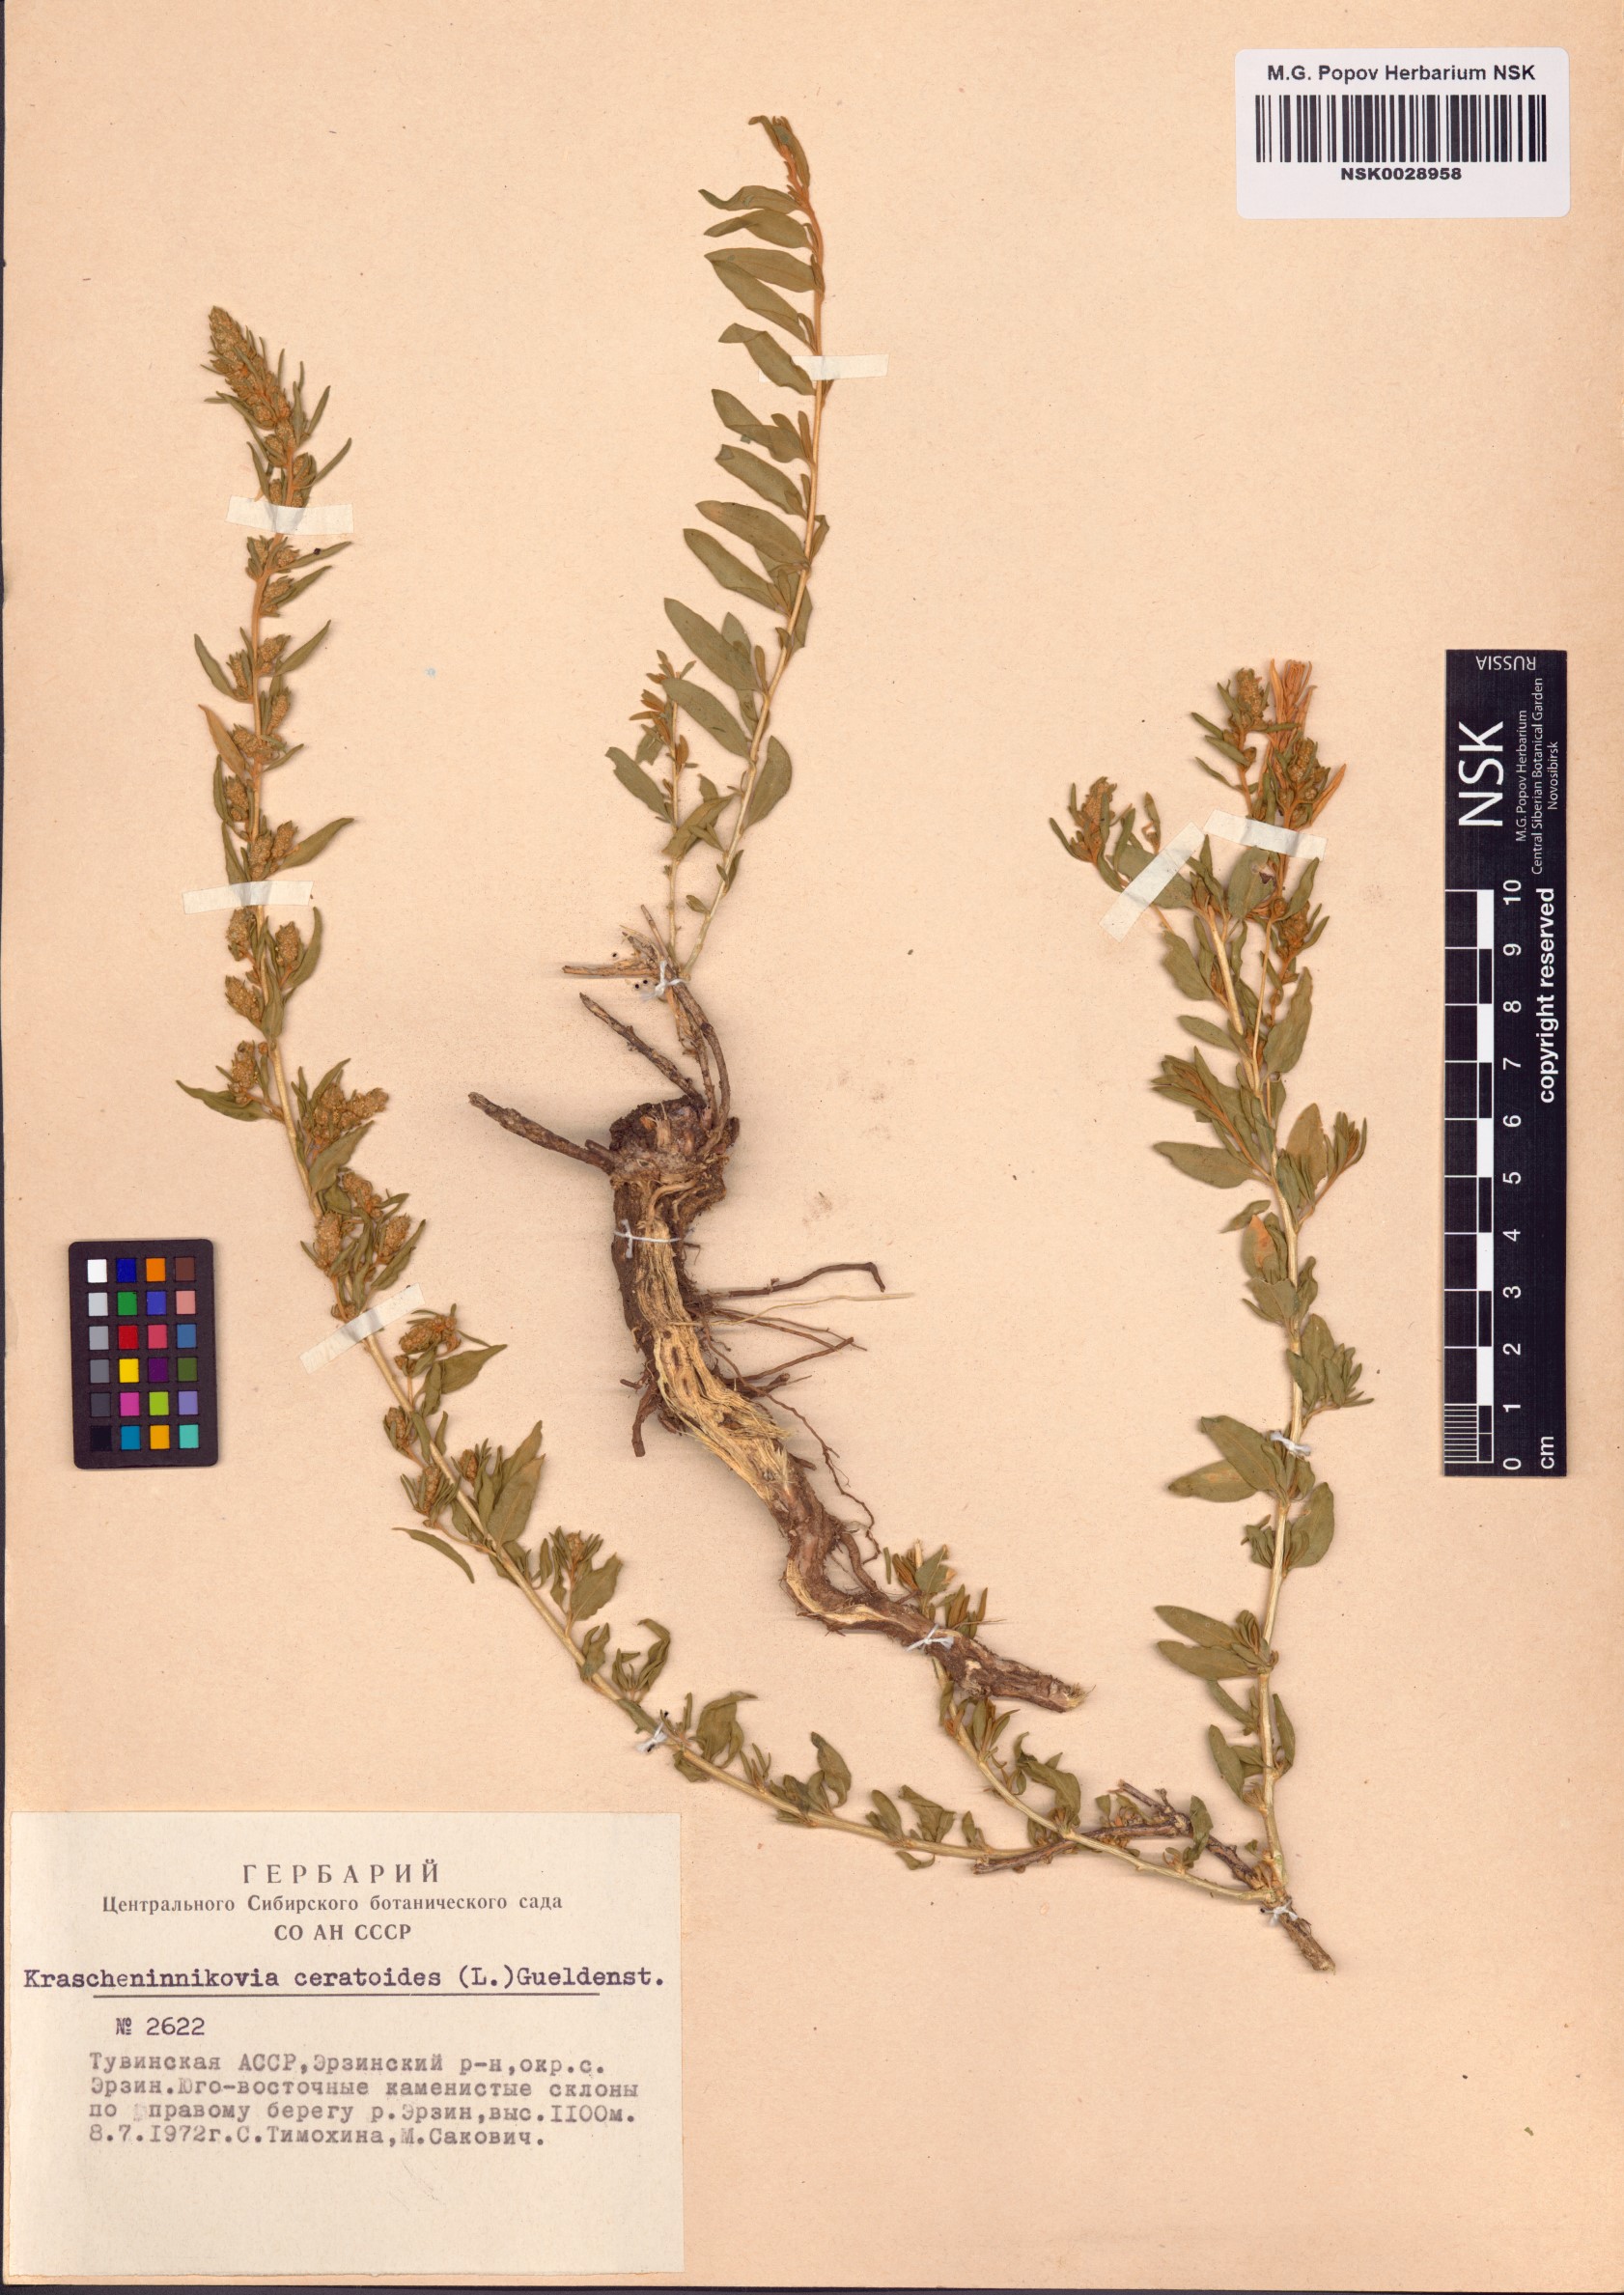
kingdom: Plantae
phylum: Tracheophyta
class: Magnoliopsida
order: Caryophyllales
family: Amaranthaceae
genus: Krascheninnikovia
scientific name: Krascheninnikovia ceratoides
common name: Pamirian winterfat
